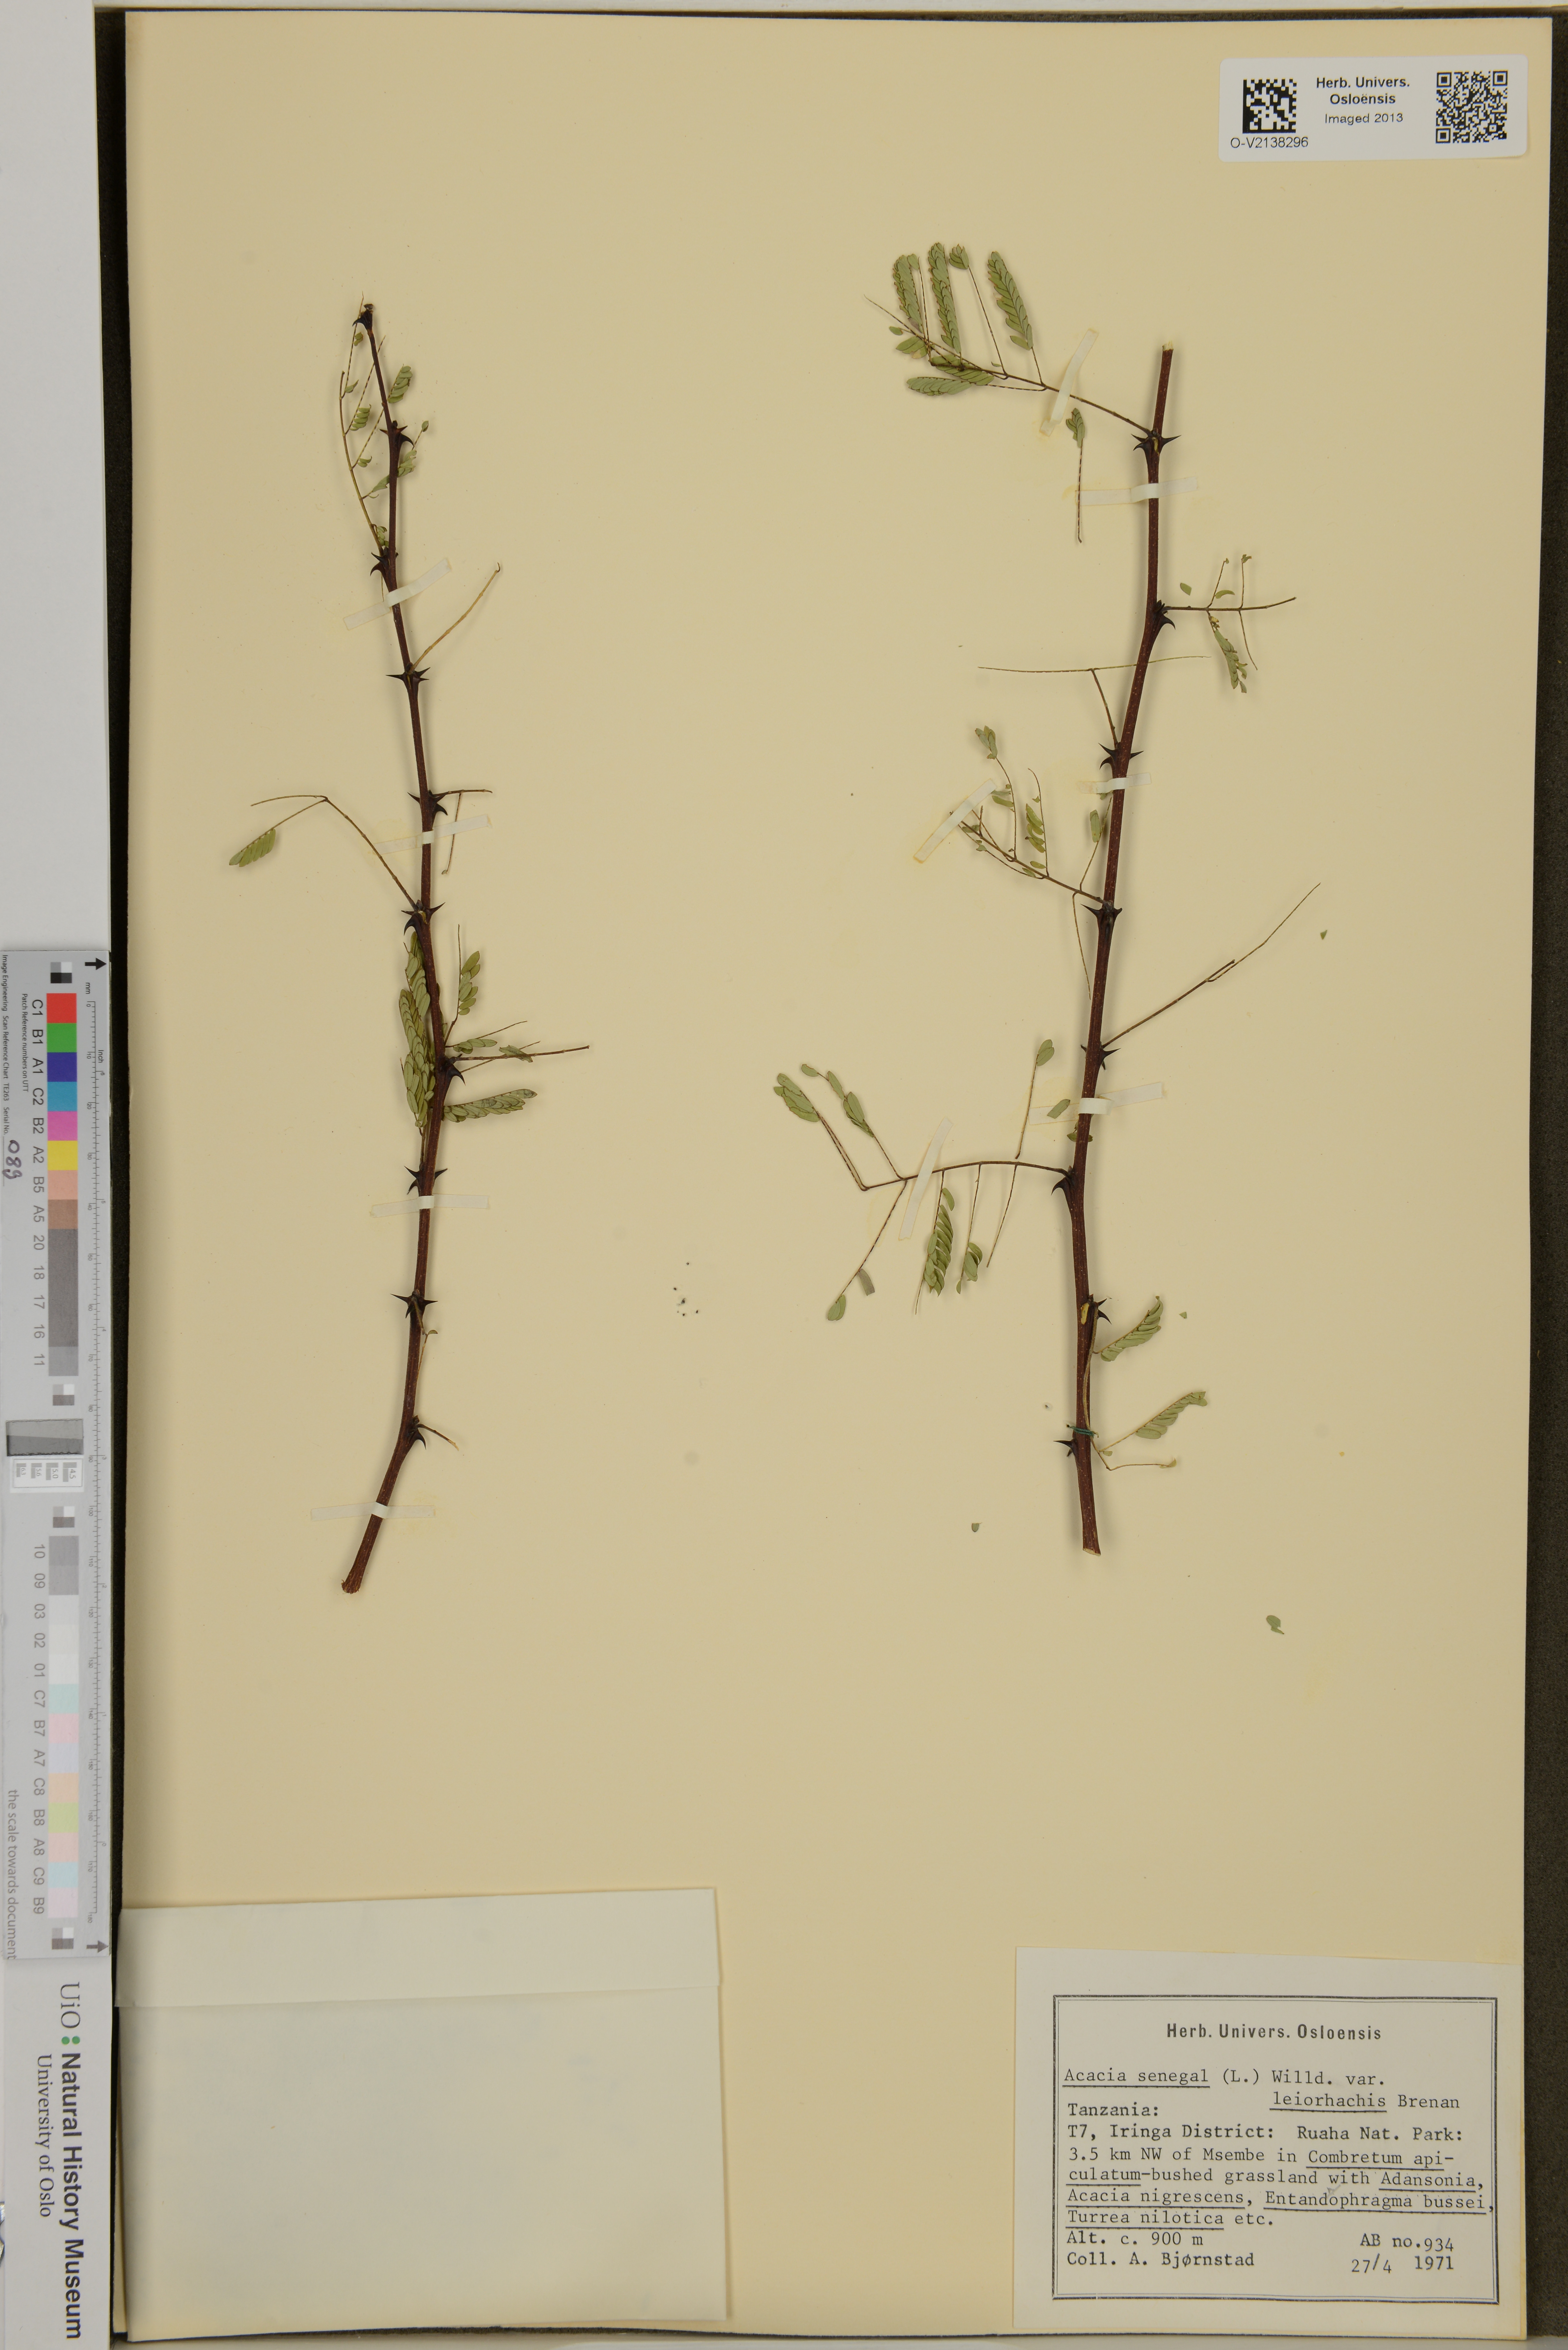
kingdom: Plantae
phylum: Tracheophyta
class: Magnoliopsida
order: Fabales
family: Fabaceae
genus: Senegalia
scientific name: Senegalia senegal
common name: Senegal-gum
